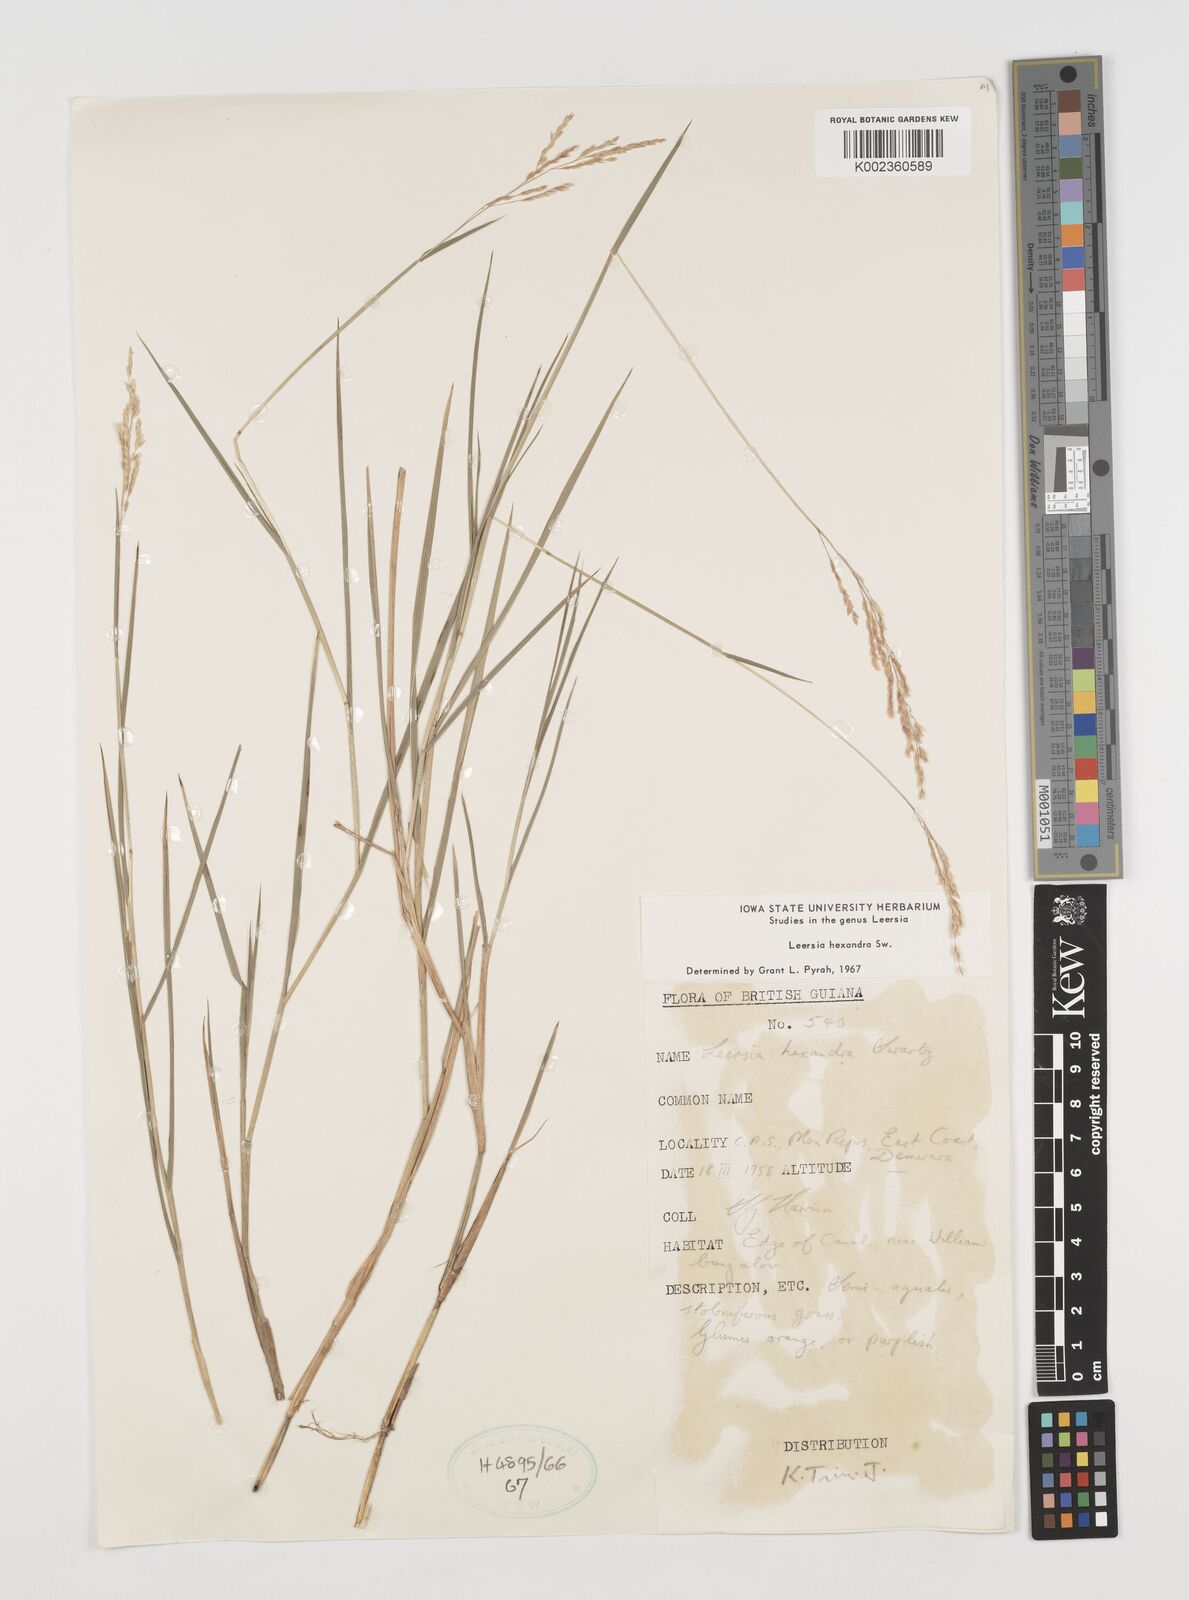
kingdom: Plantae
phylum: Tracheophyta
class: Liliopsida
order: Poales
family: Poaceae
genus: Leersia
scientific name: Leersia hexandra
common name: Southern cut grass
